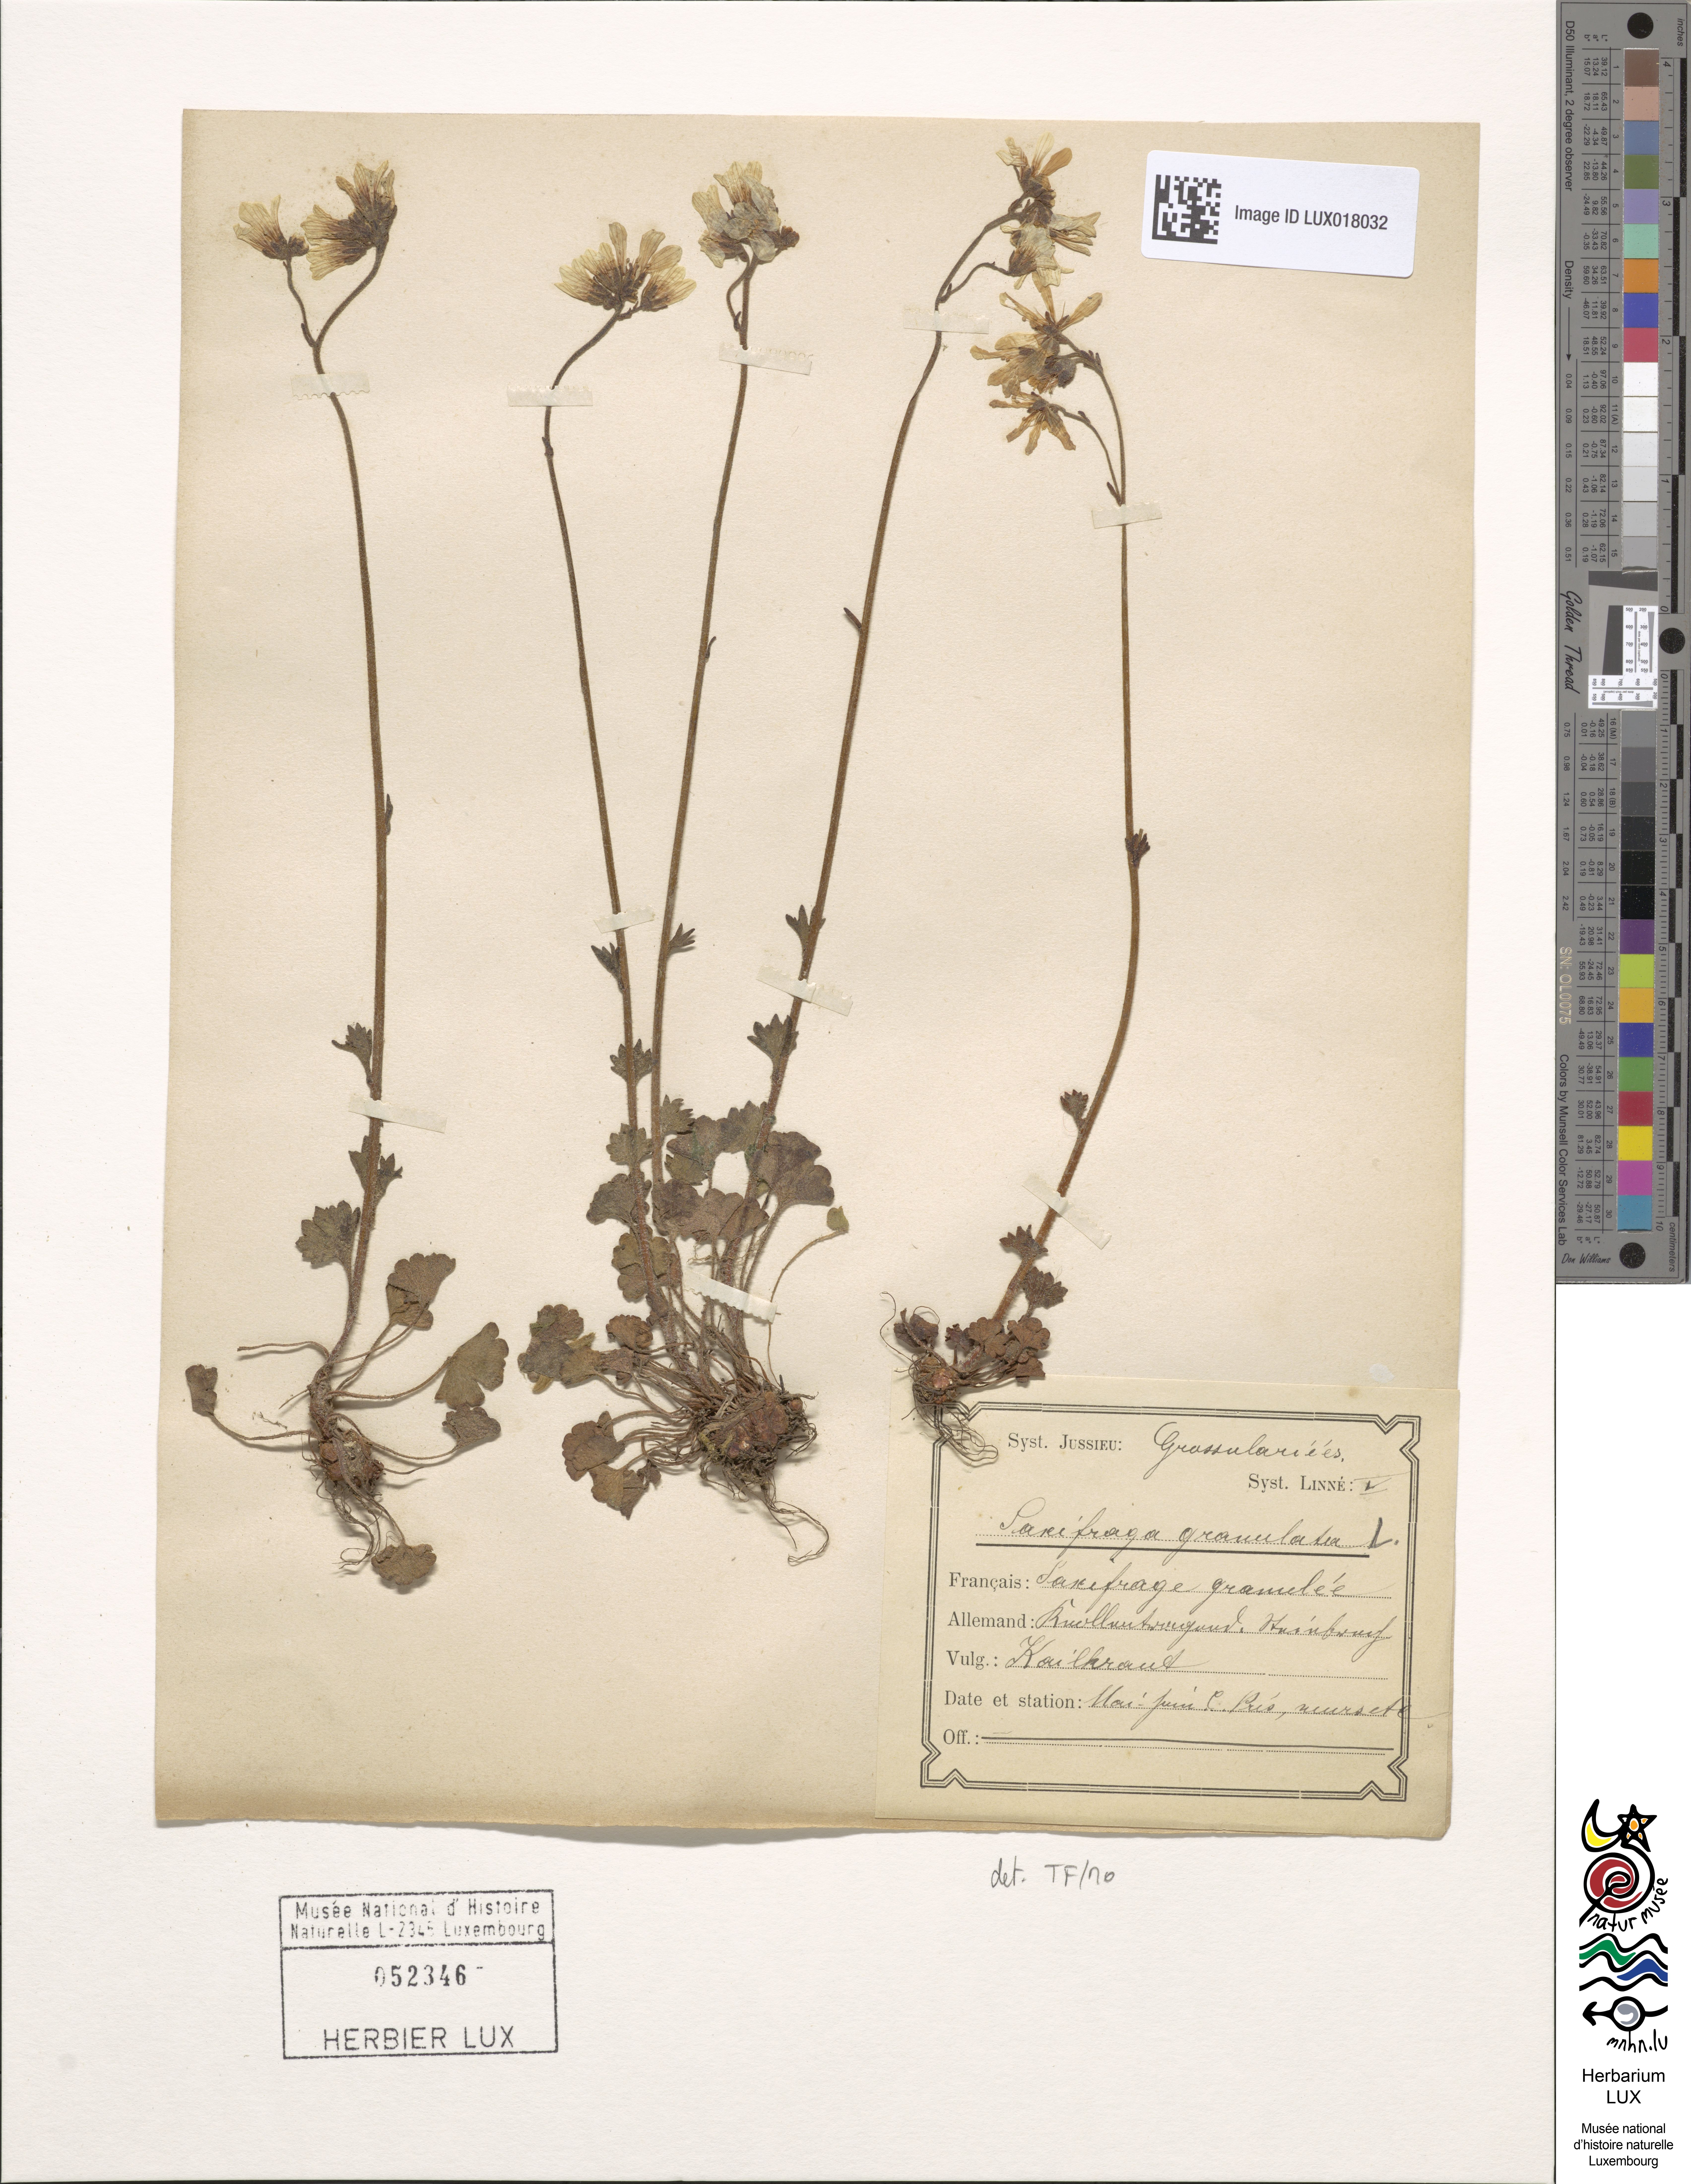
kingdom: Plantae
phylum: Tracheophyta
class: Magnoliopsida
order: Saxifragales
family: Saxifragaceae
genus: Saxifraga
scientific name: Saxifraga granulata
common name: Meadow saxifrage
